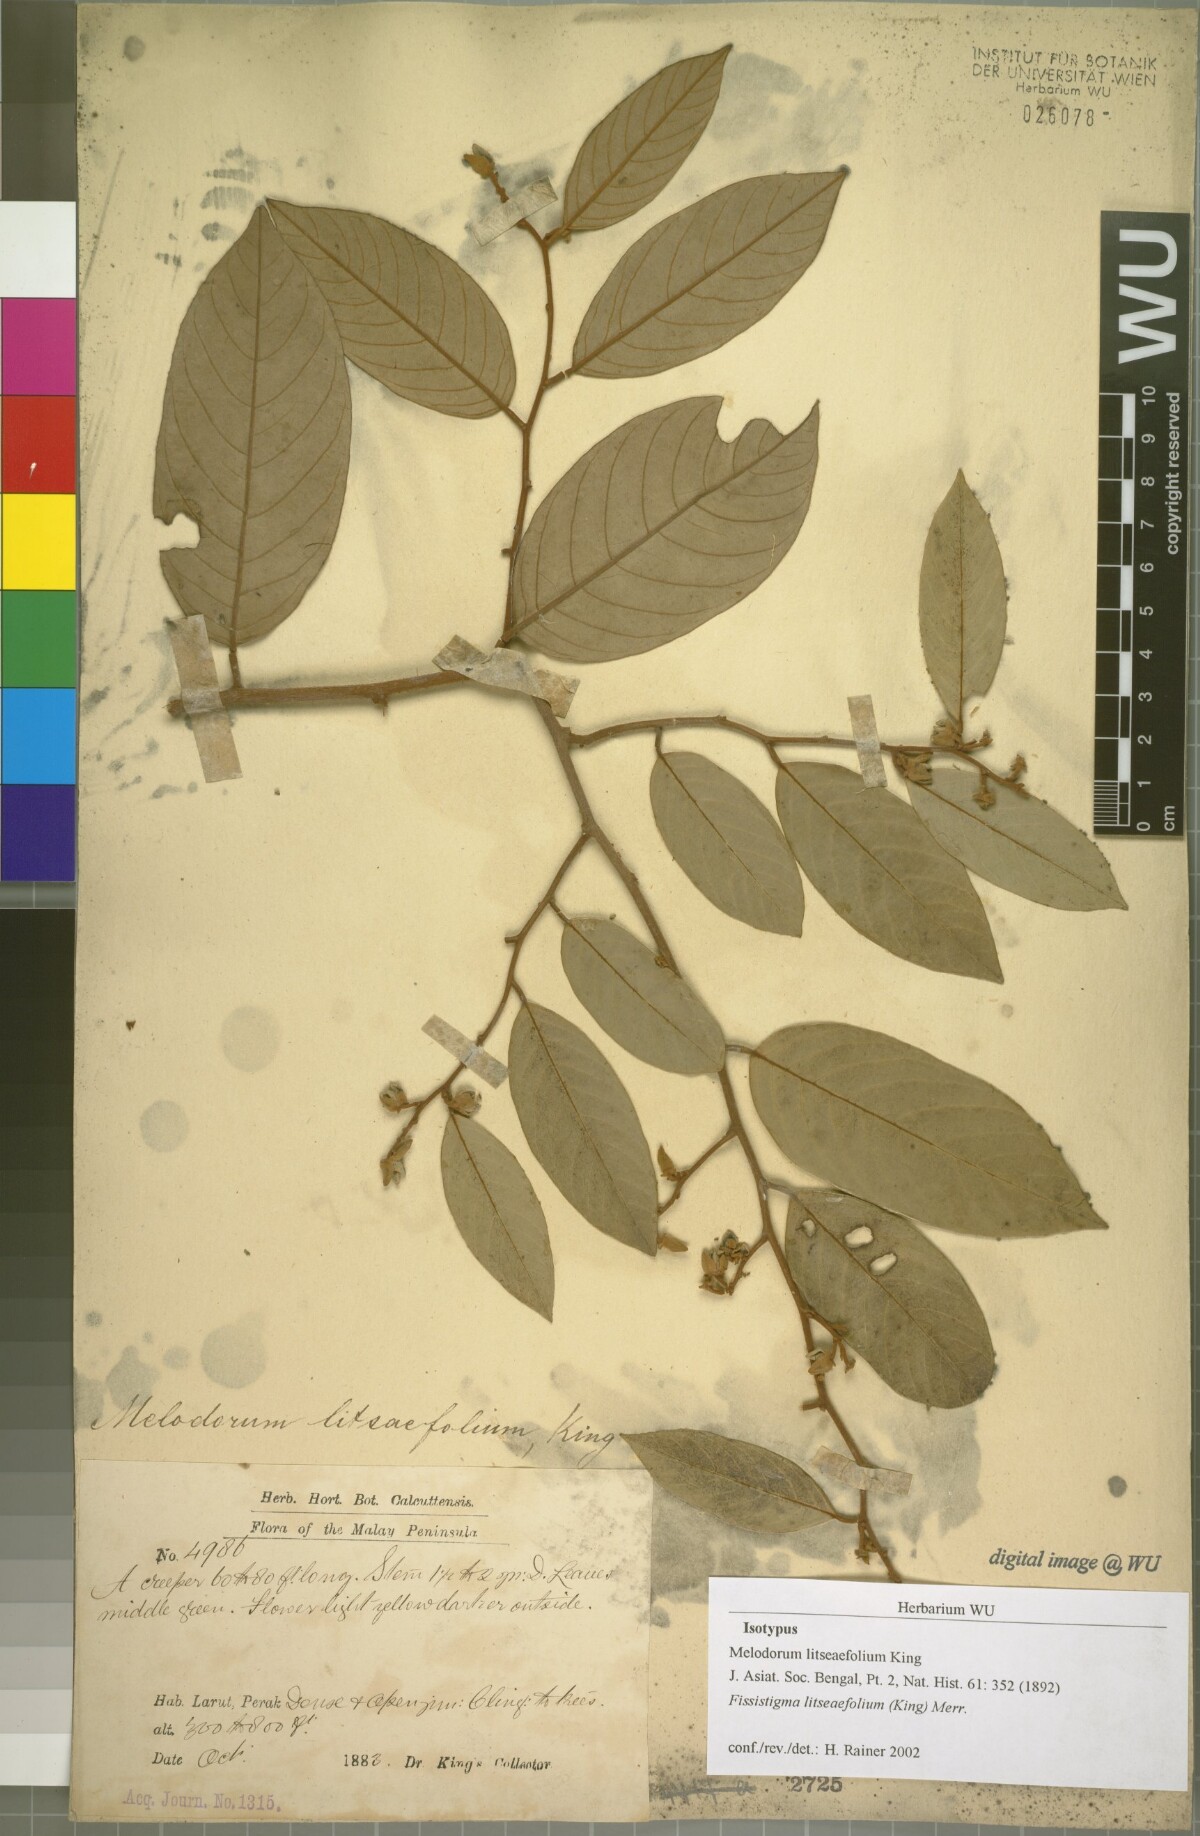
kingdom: Plantae
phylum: Tracheophyta
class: Magnoliopsida
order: Magnoliales
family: Annonaceae
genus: Fissistigma
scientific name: Fissistigma litseaefolium
